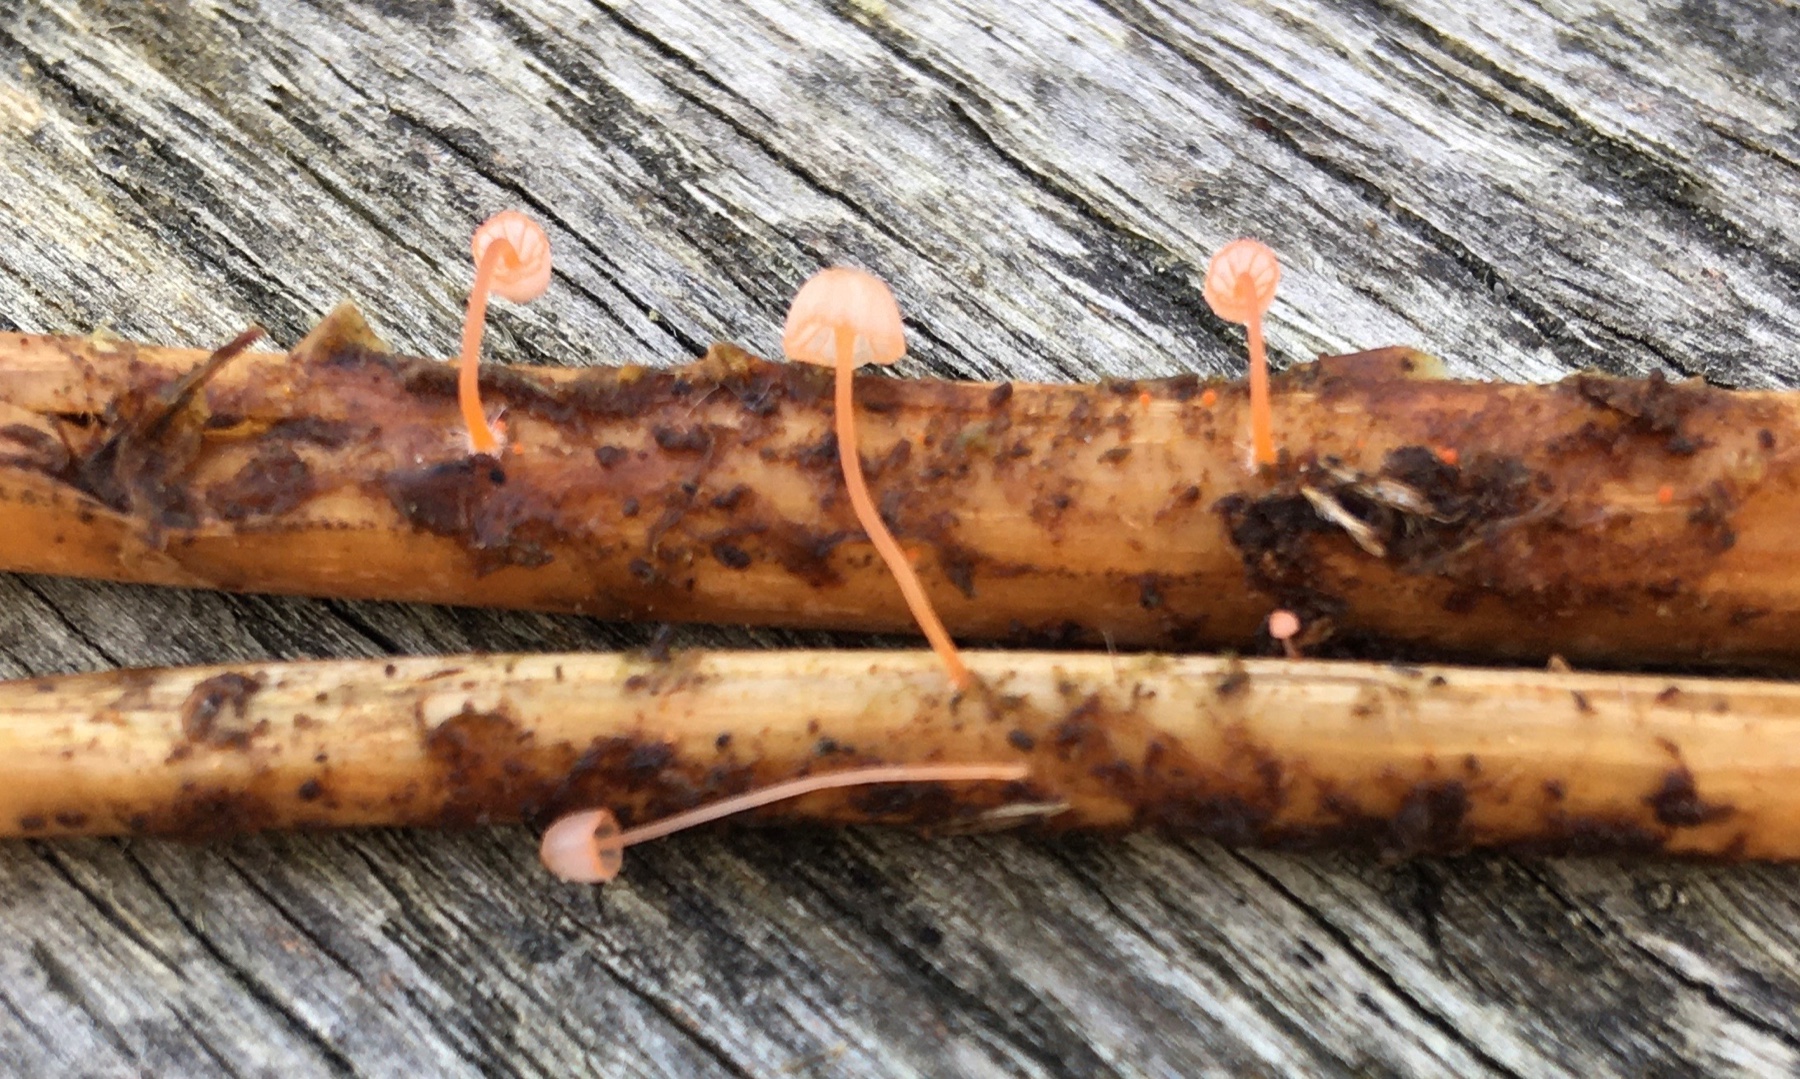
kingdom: Fungi
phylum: Basidiomycota
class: Agaricomycetes
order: Agaricales
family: Mycenaceae
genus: Mycena
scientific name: Mycena pterigena
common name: bregne-huesvamp
